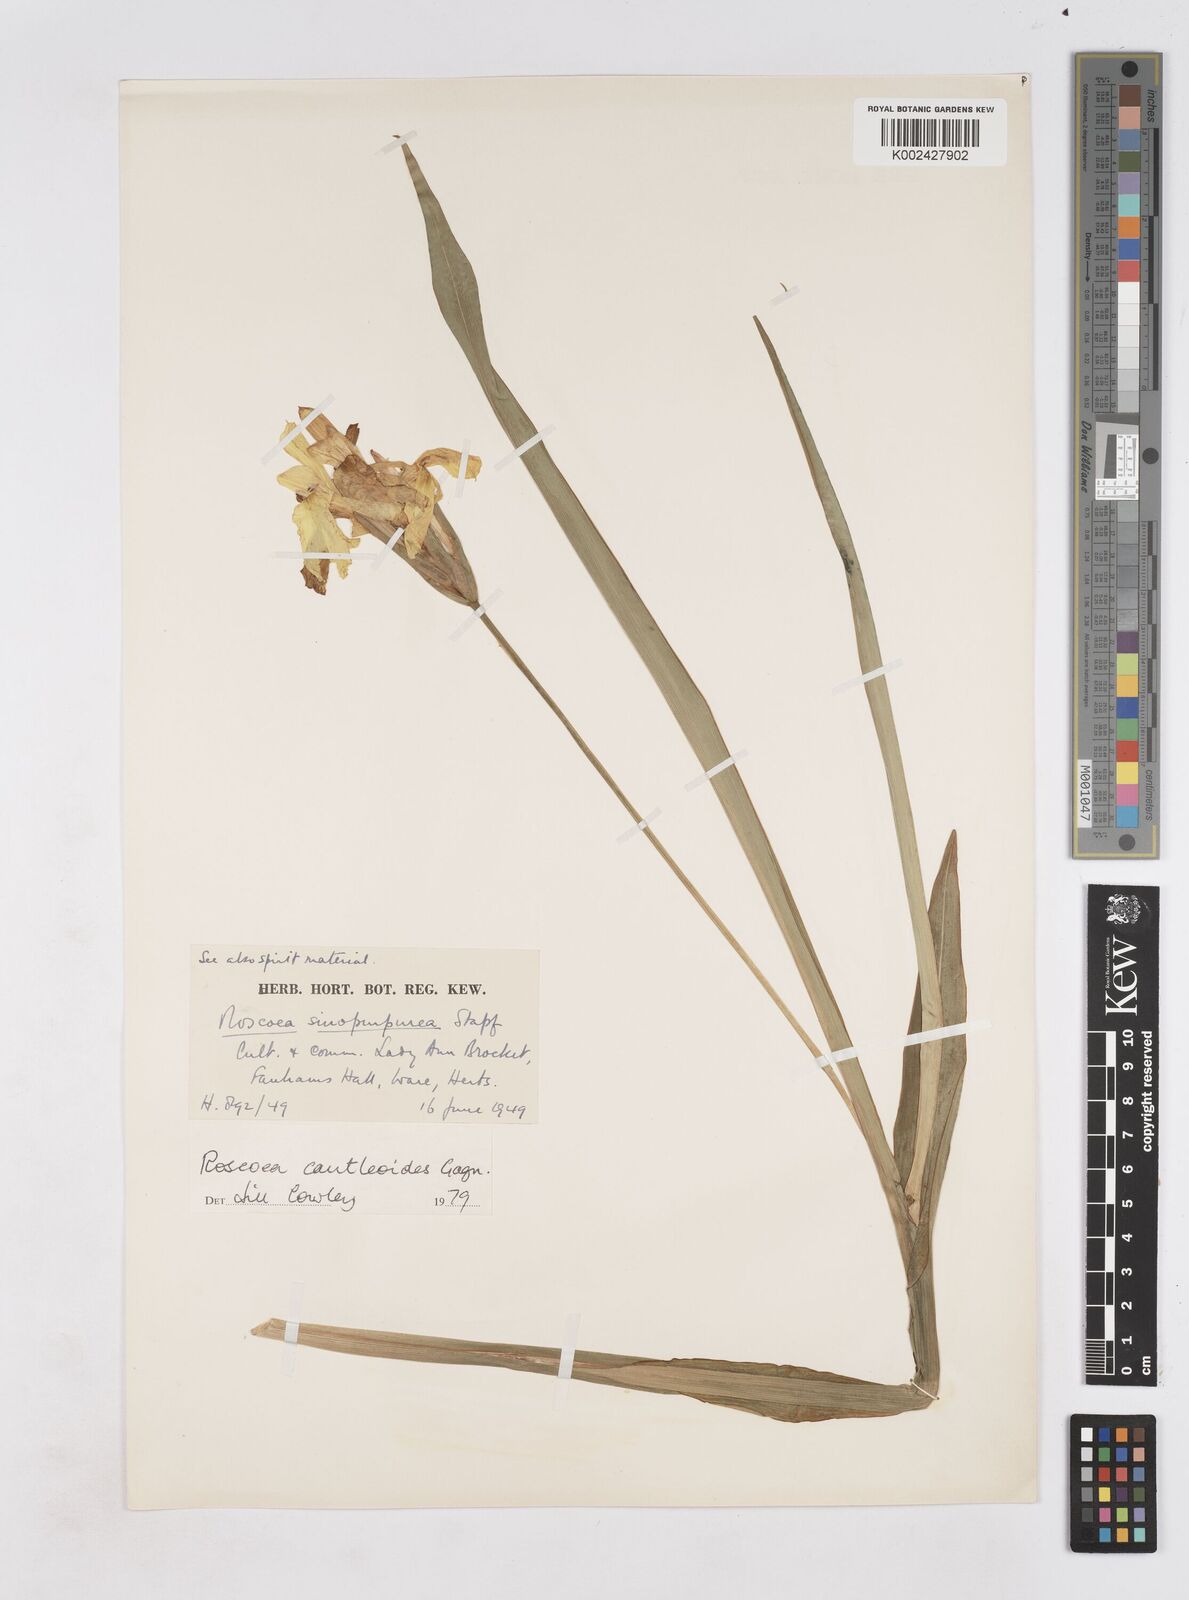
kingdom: Plantae
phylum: Tracheophyta
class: Liliopsida
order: Zingiberales
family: Zingiberaceae
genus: Roscoea
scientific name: Roscoea cautleyoides
